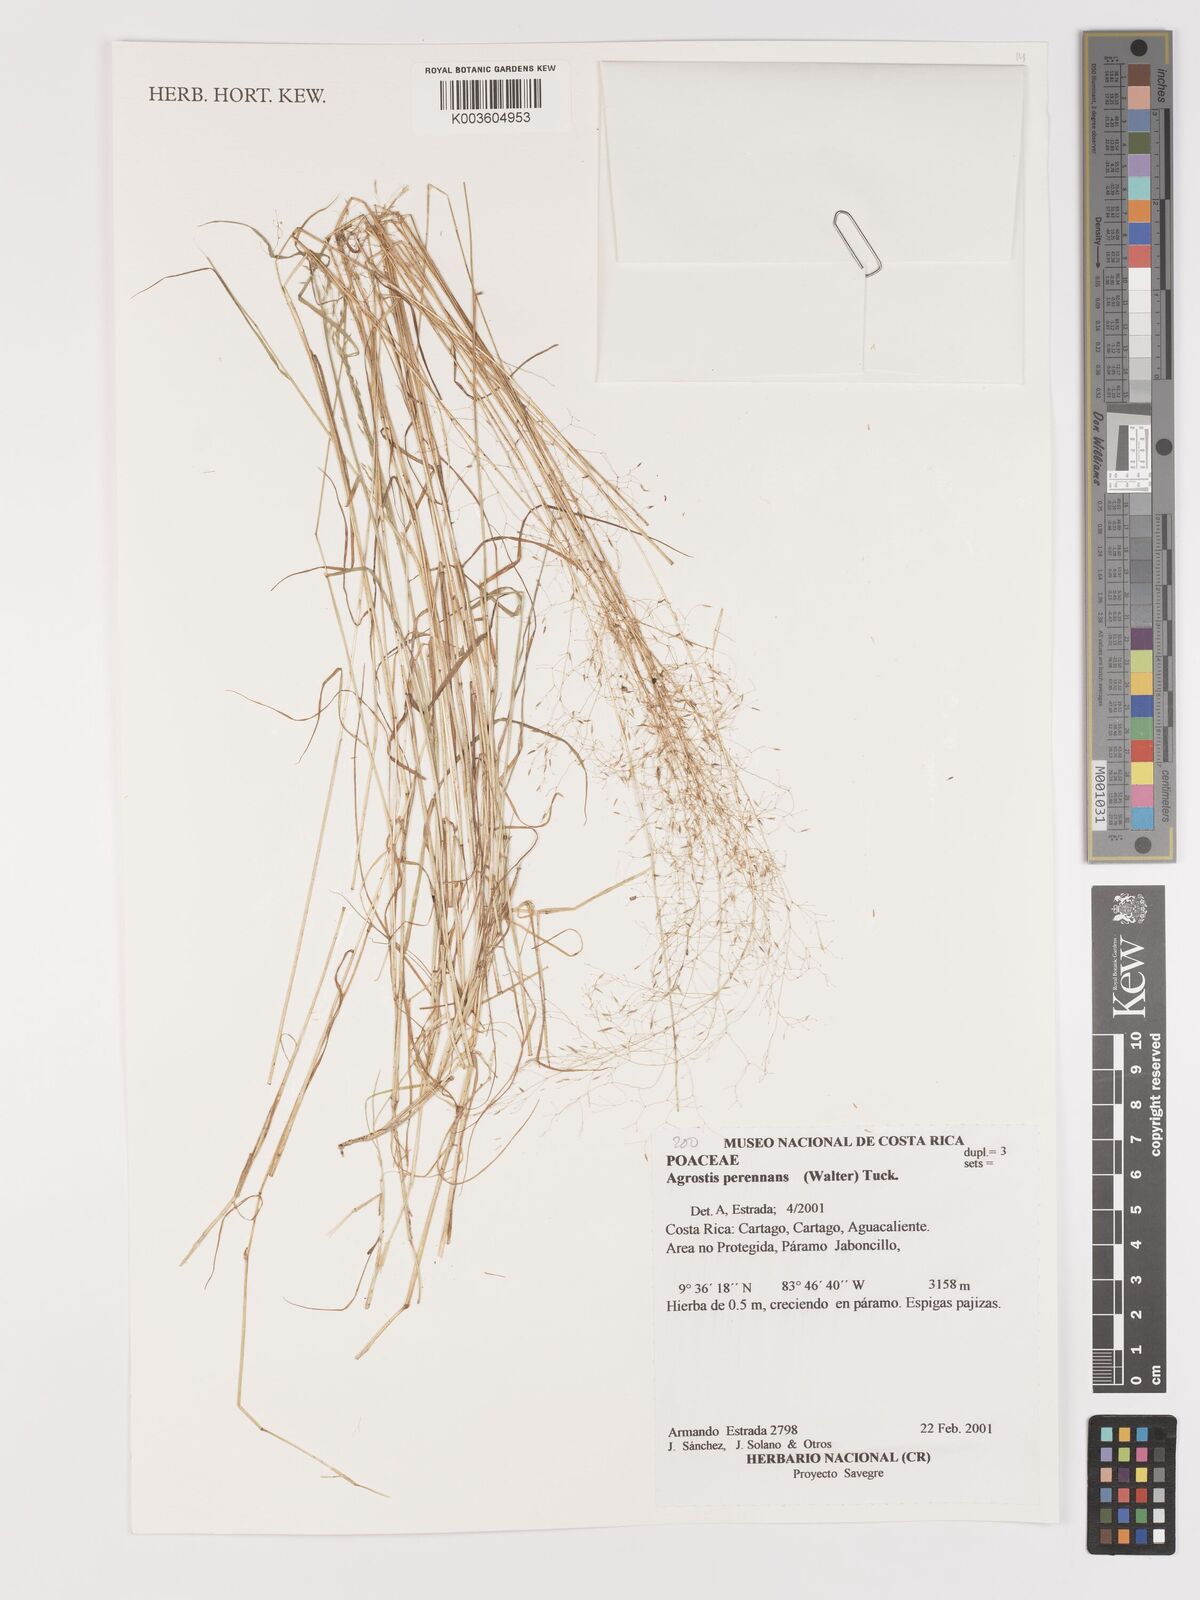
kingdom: Plantae
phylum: Tracheophyta
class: Liliopsida
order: Poales
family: Poaceae
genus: Agrostis
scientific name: Agrostis perennans
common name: Autumn bent
